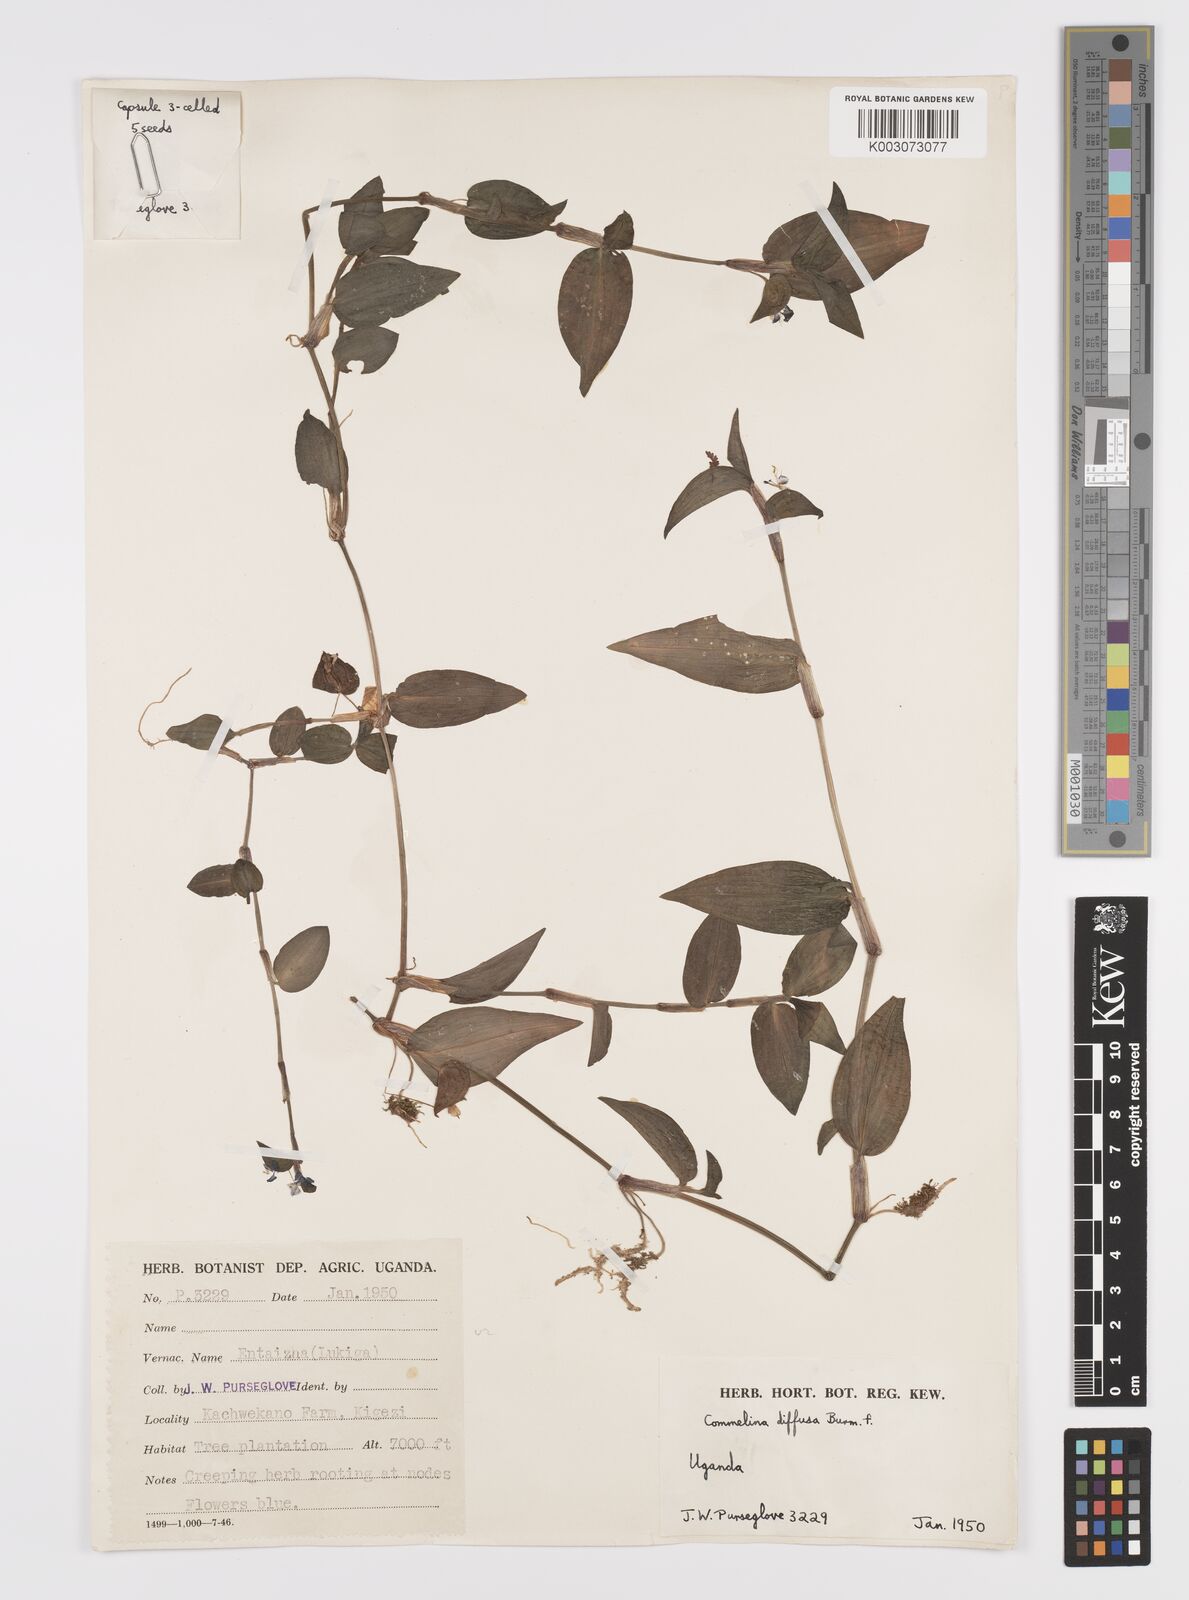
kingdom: Plantae
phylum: Tracheophyta
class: Liliopsida
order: Commelinales
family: Commelinaceae
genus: Commelina
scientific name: Commelina diffusa
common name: Climbing dayflower
